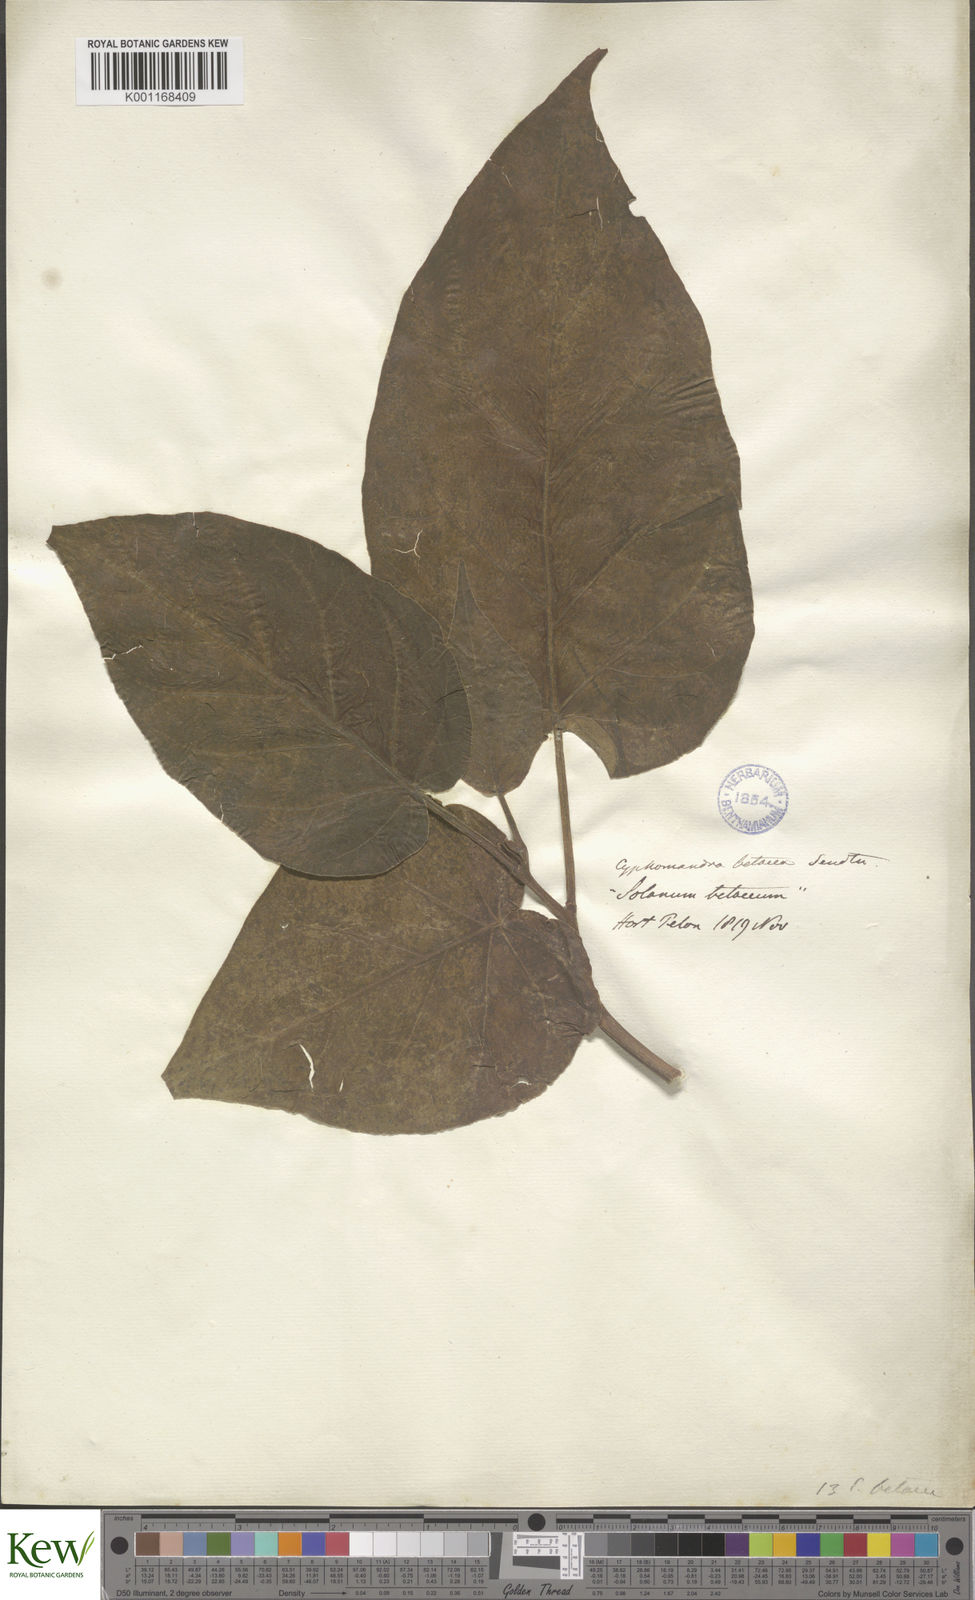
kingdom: Plantae
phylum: Tracheophyta
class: Magnoliopsida
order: Solanales
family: Solanaceae
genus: Solanum
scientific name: Solanum betaceum
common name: Tamarillo
